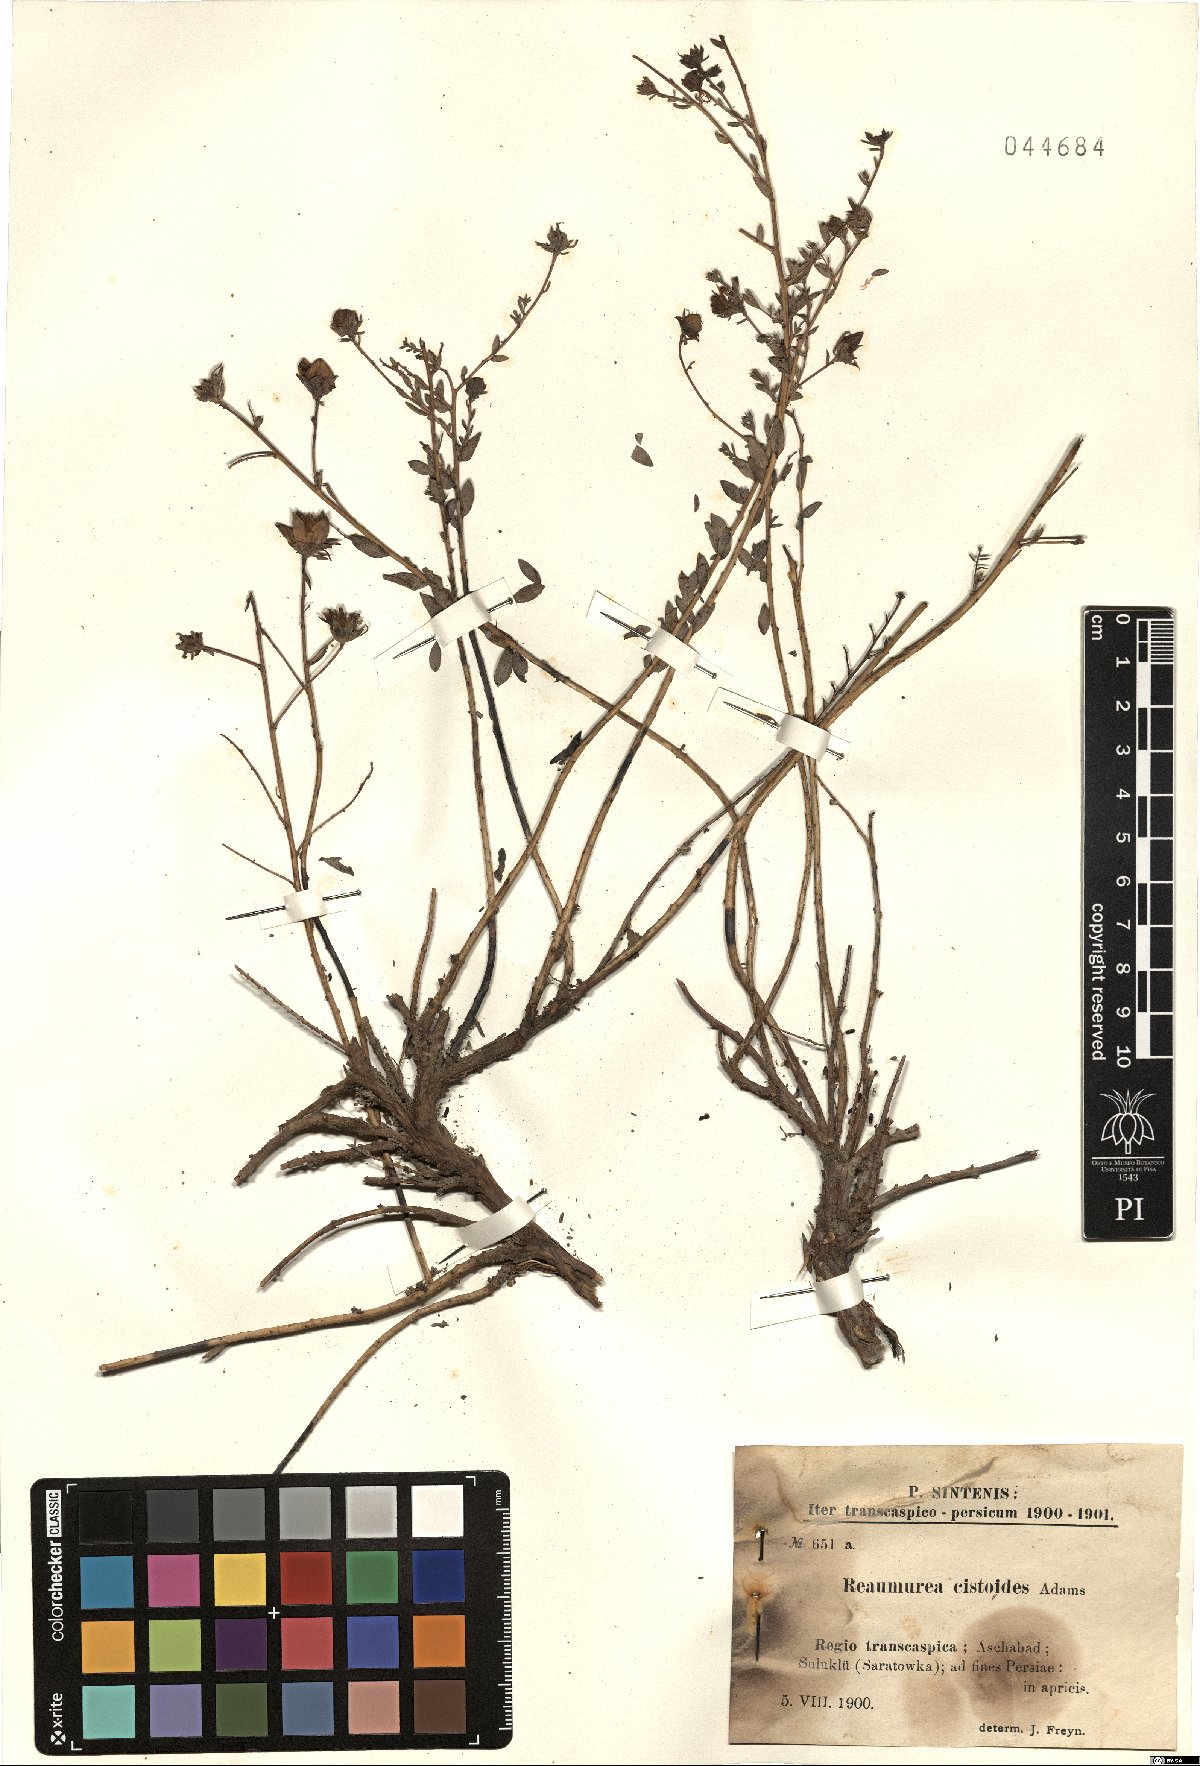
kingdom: Plantae
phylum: Tracheophyta
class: Magnoliopsida
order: Caryophyllales
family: Tamaricaceae
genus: Reaumuria
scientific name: Reaumuria alternifolia
